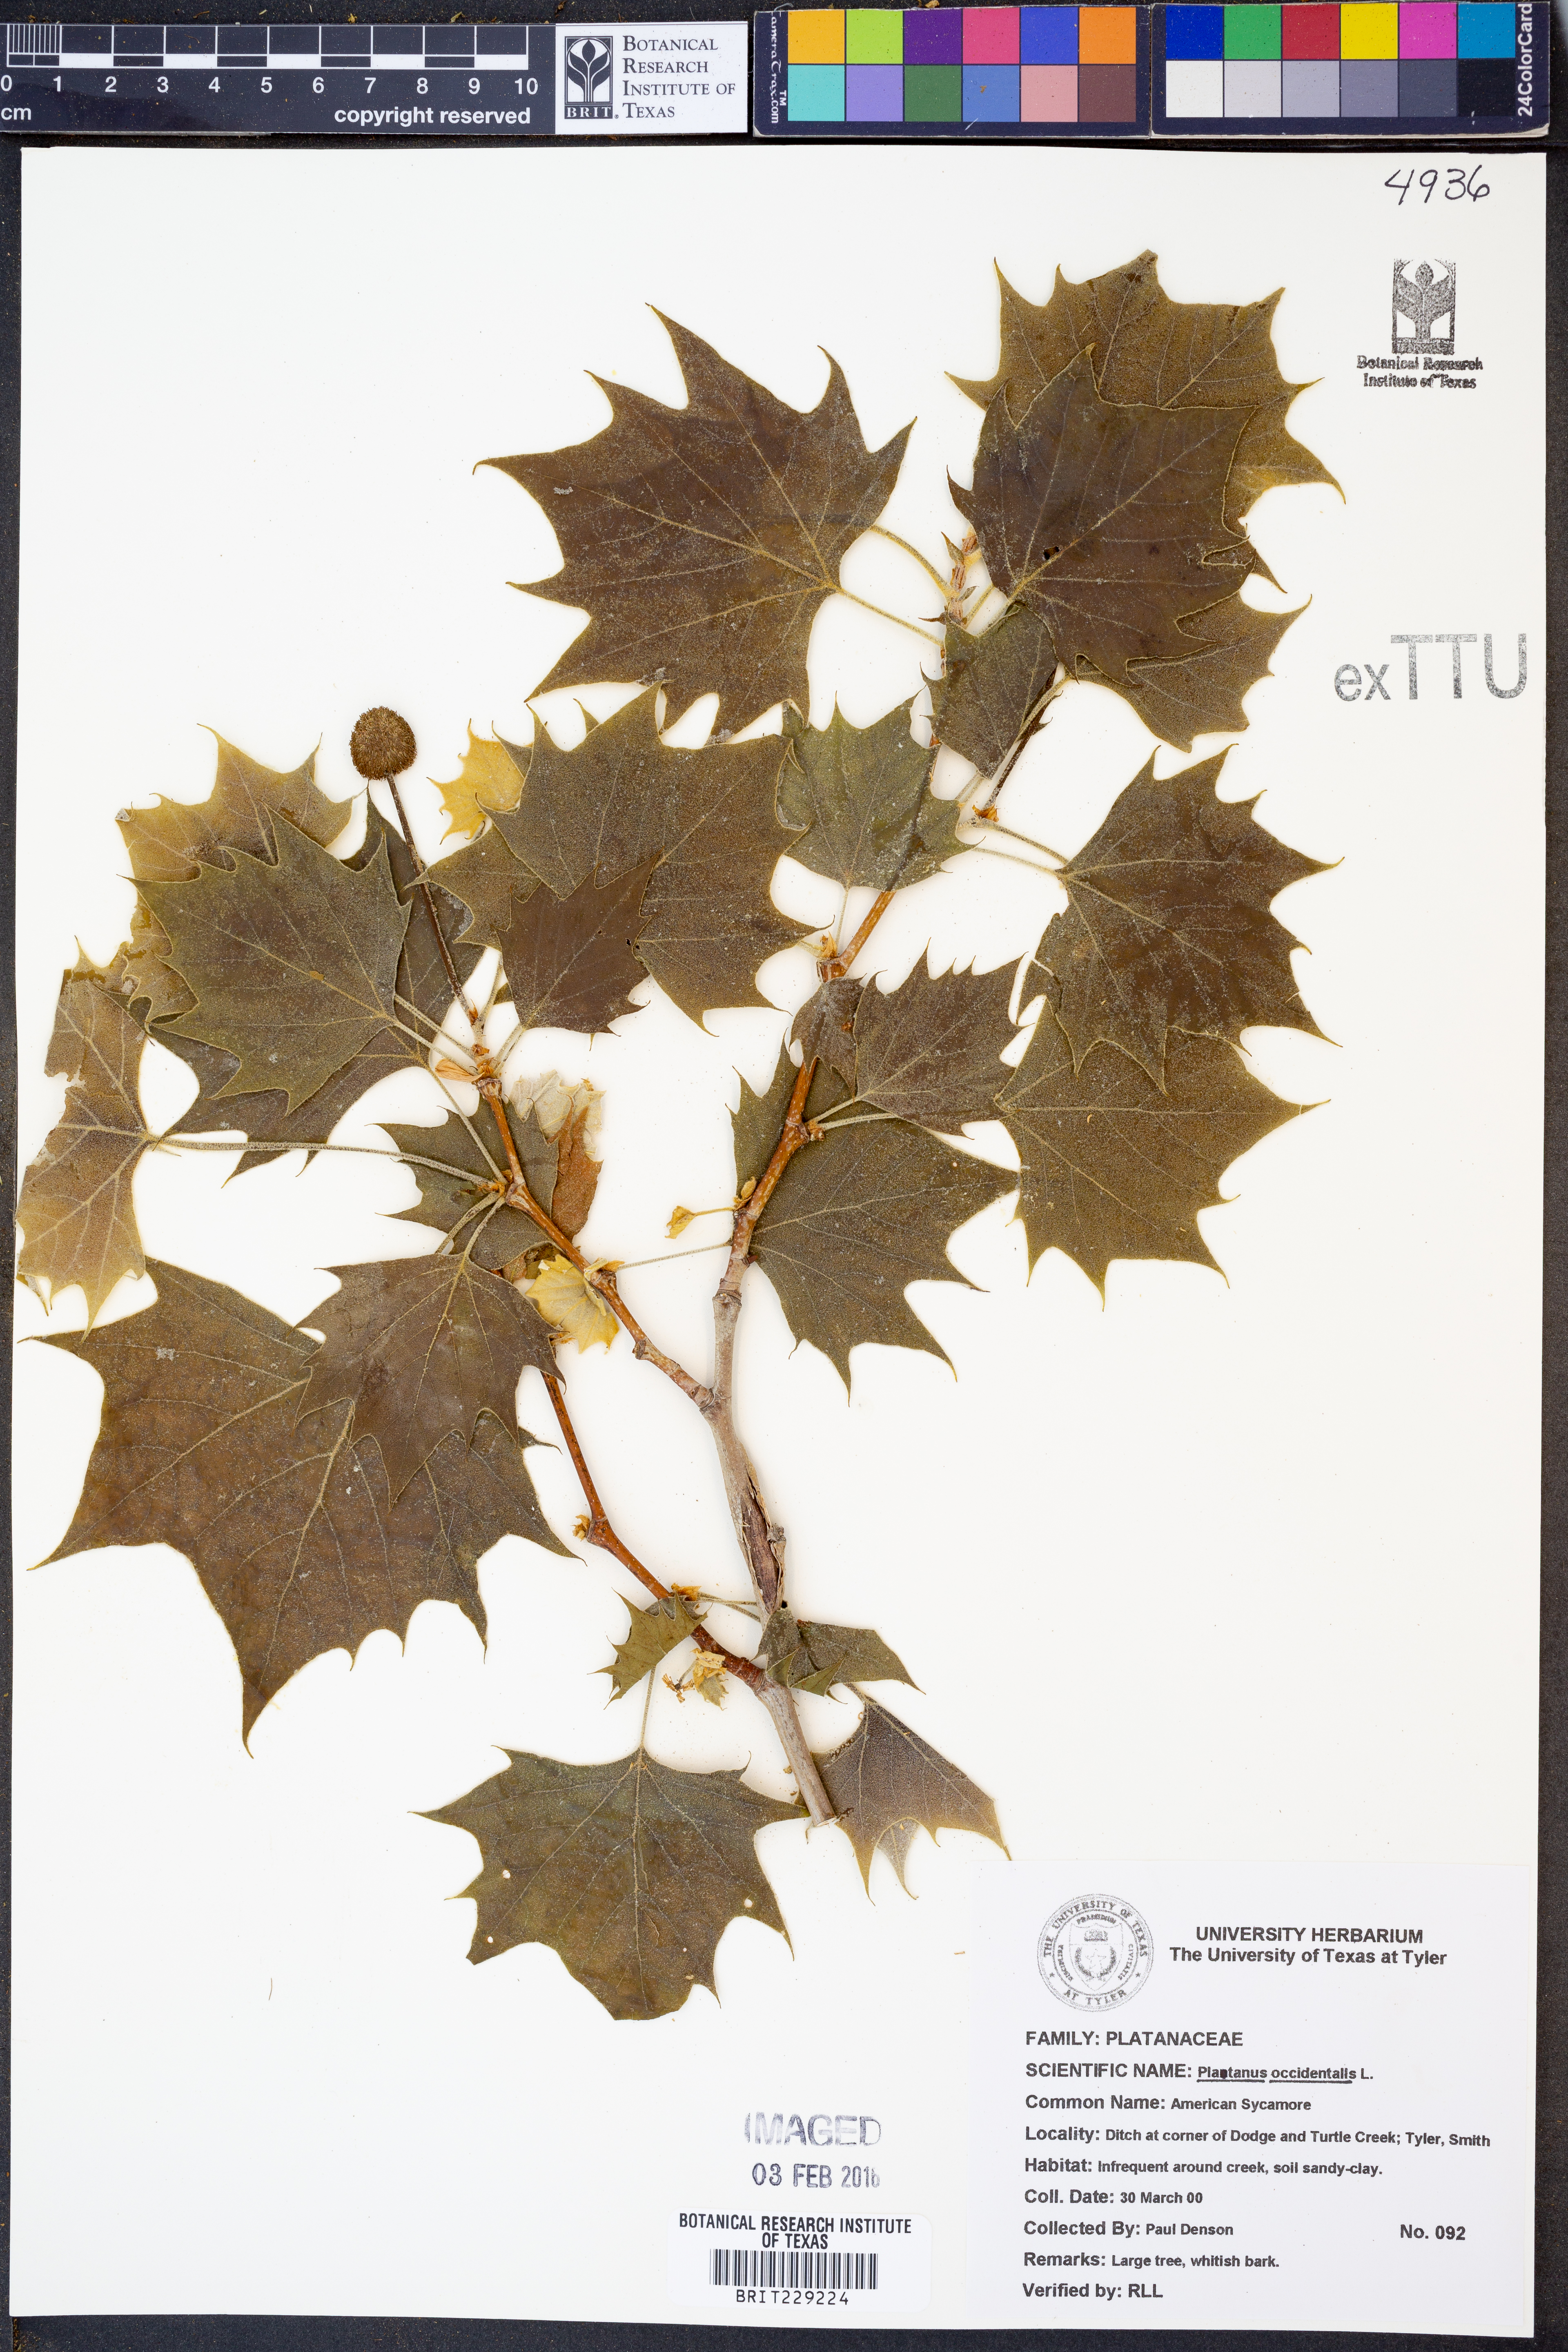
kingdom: Plantae
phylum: Tracheophyta
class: Magnoliopsida
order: Proteales
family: Platanaceae
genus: Platanus
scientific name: Platanus occidentalis
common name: American sycamore
